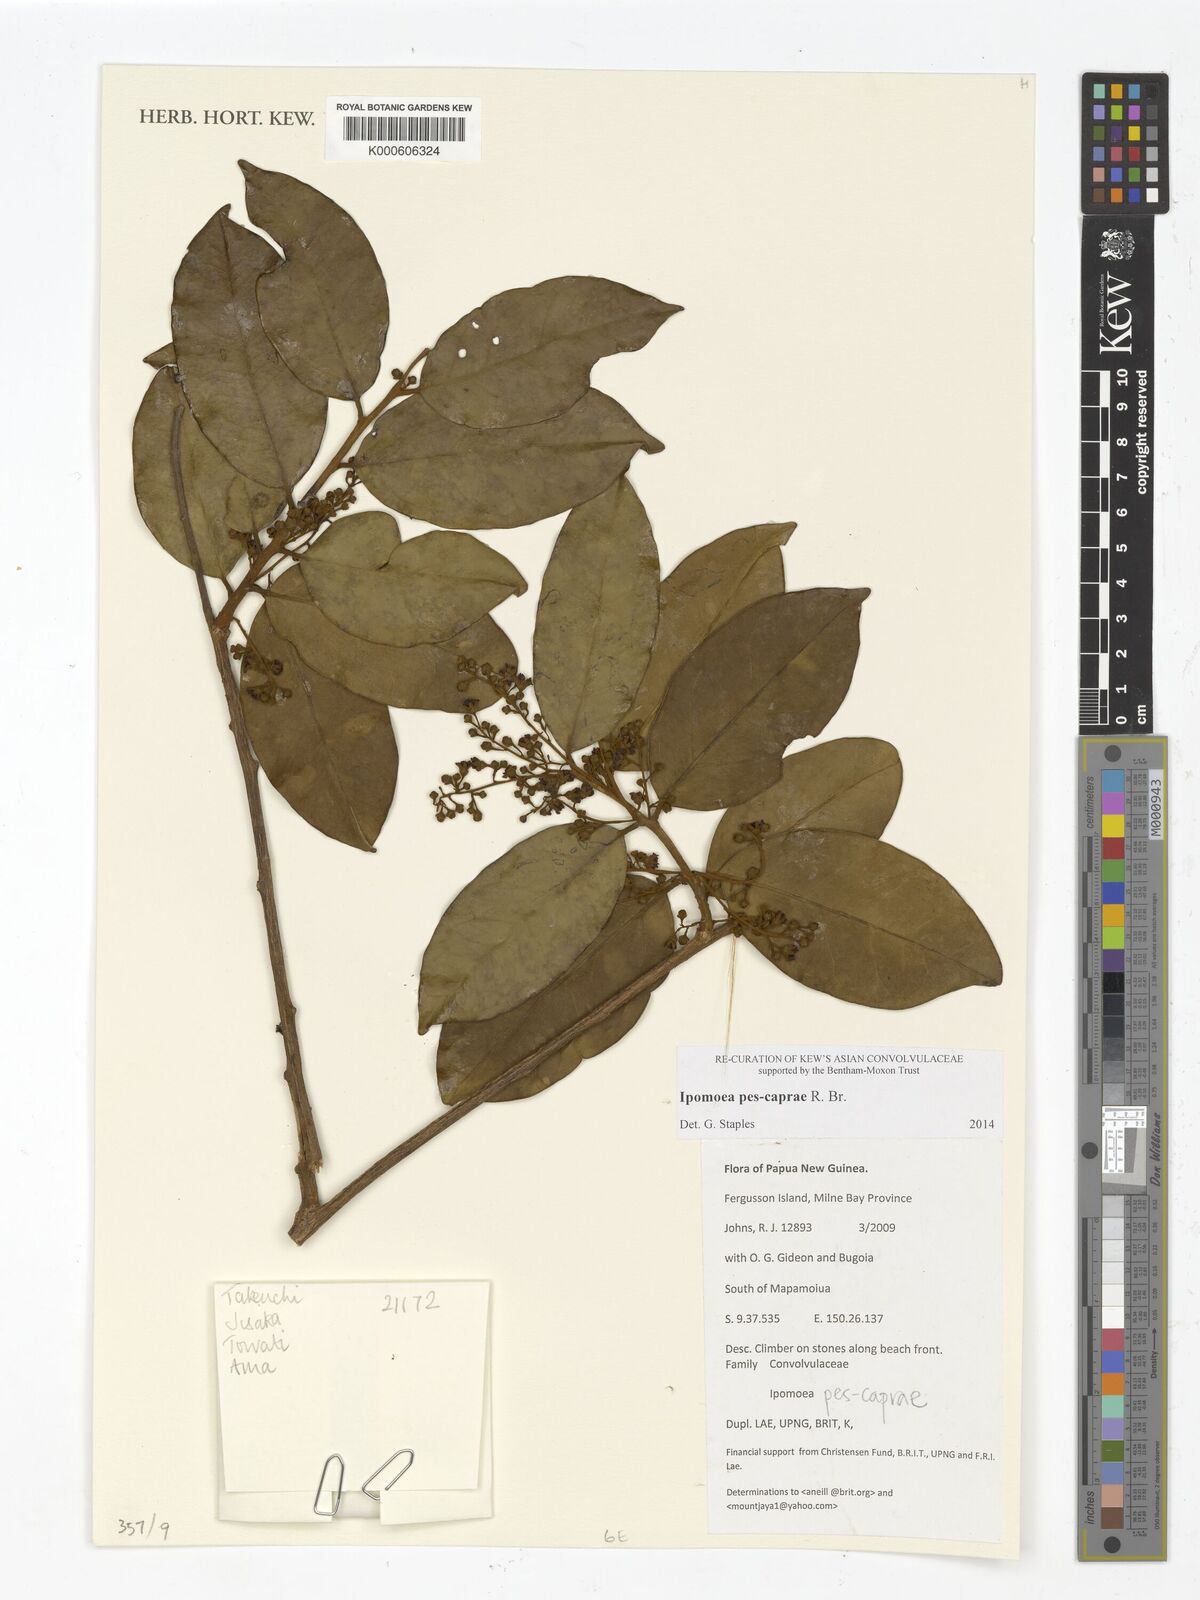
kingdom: Plantae
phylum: Tracheophyta
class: Magnoliopsida
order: Solanales
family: Convolvulaceae
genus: Ipomoea
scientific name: Ipomoea
